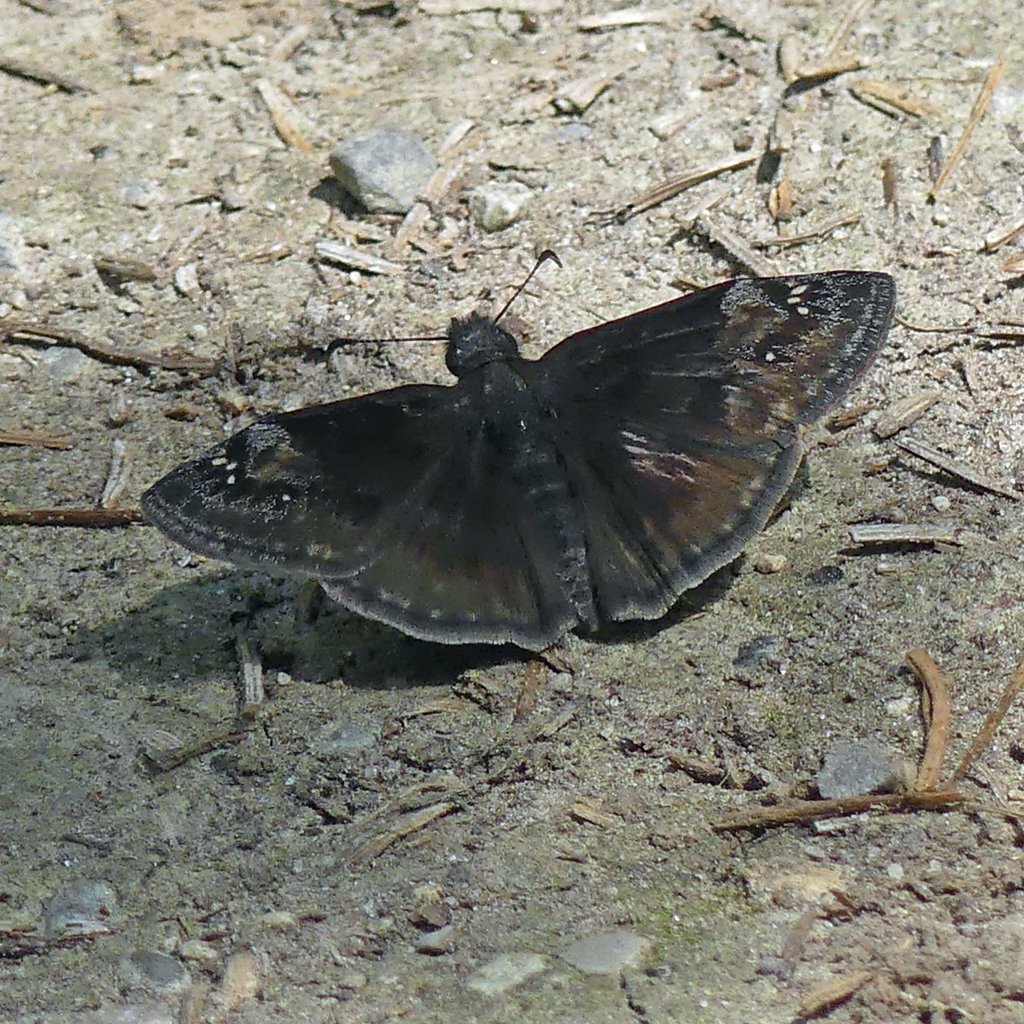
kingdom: Animalia
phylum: Arthropoda
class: Insecta
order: Lepidoptera
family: Hesperiidae
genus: Gesta
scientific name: Gesta
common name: Wild Indigo Duskywing
